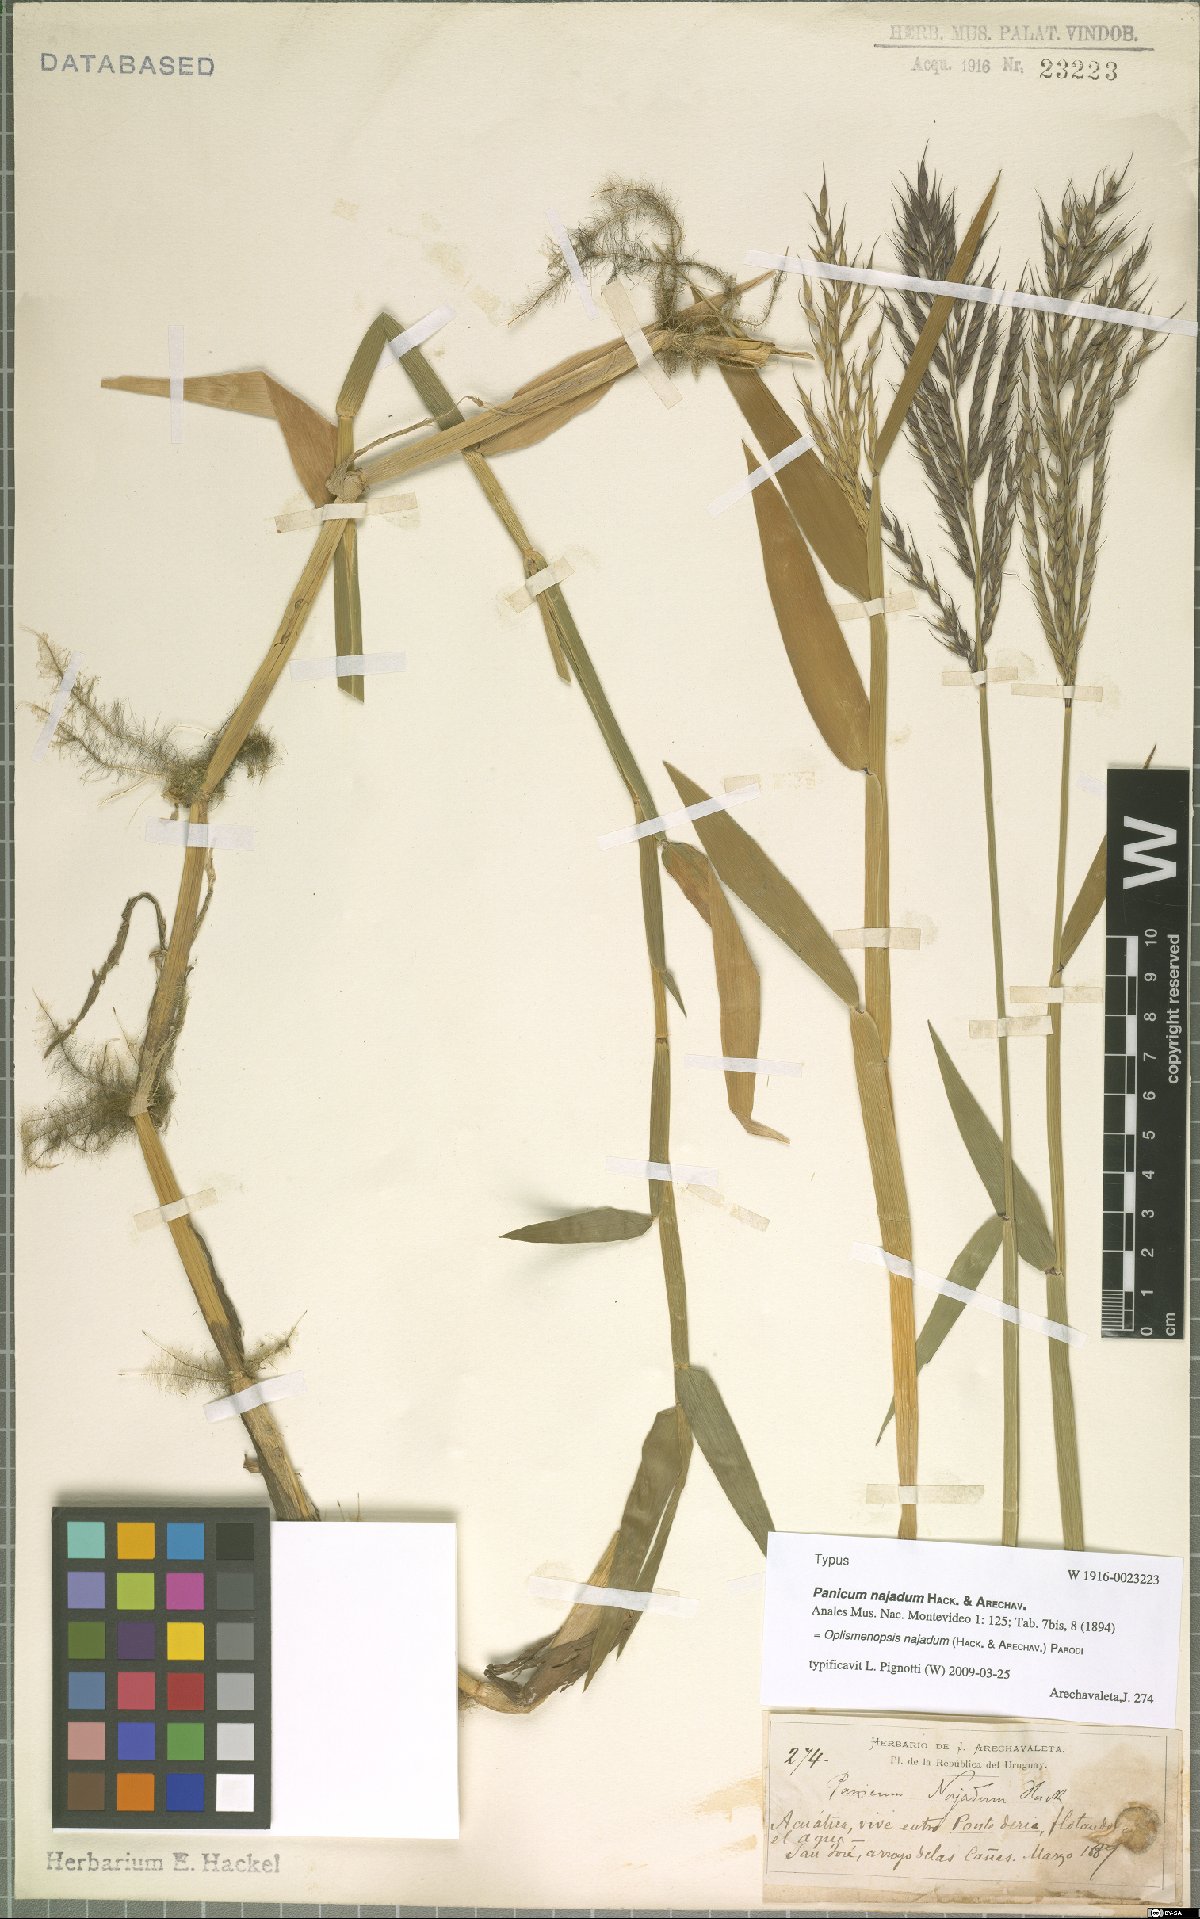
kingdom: Plantae
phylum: Tracheophyta
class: Liliopsida
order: Poales
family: Poaceae
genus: Oplismenopsis
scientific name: Oplismenopsis najada
